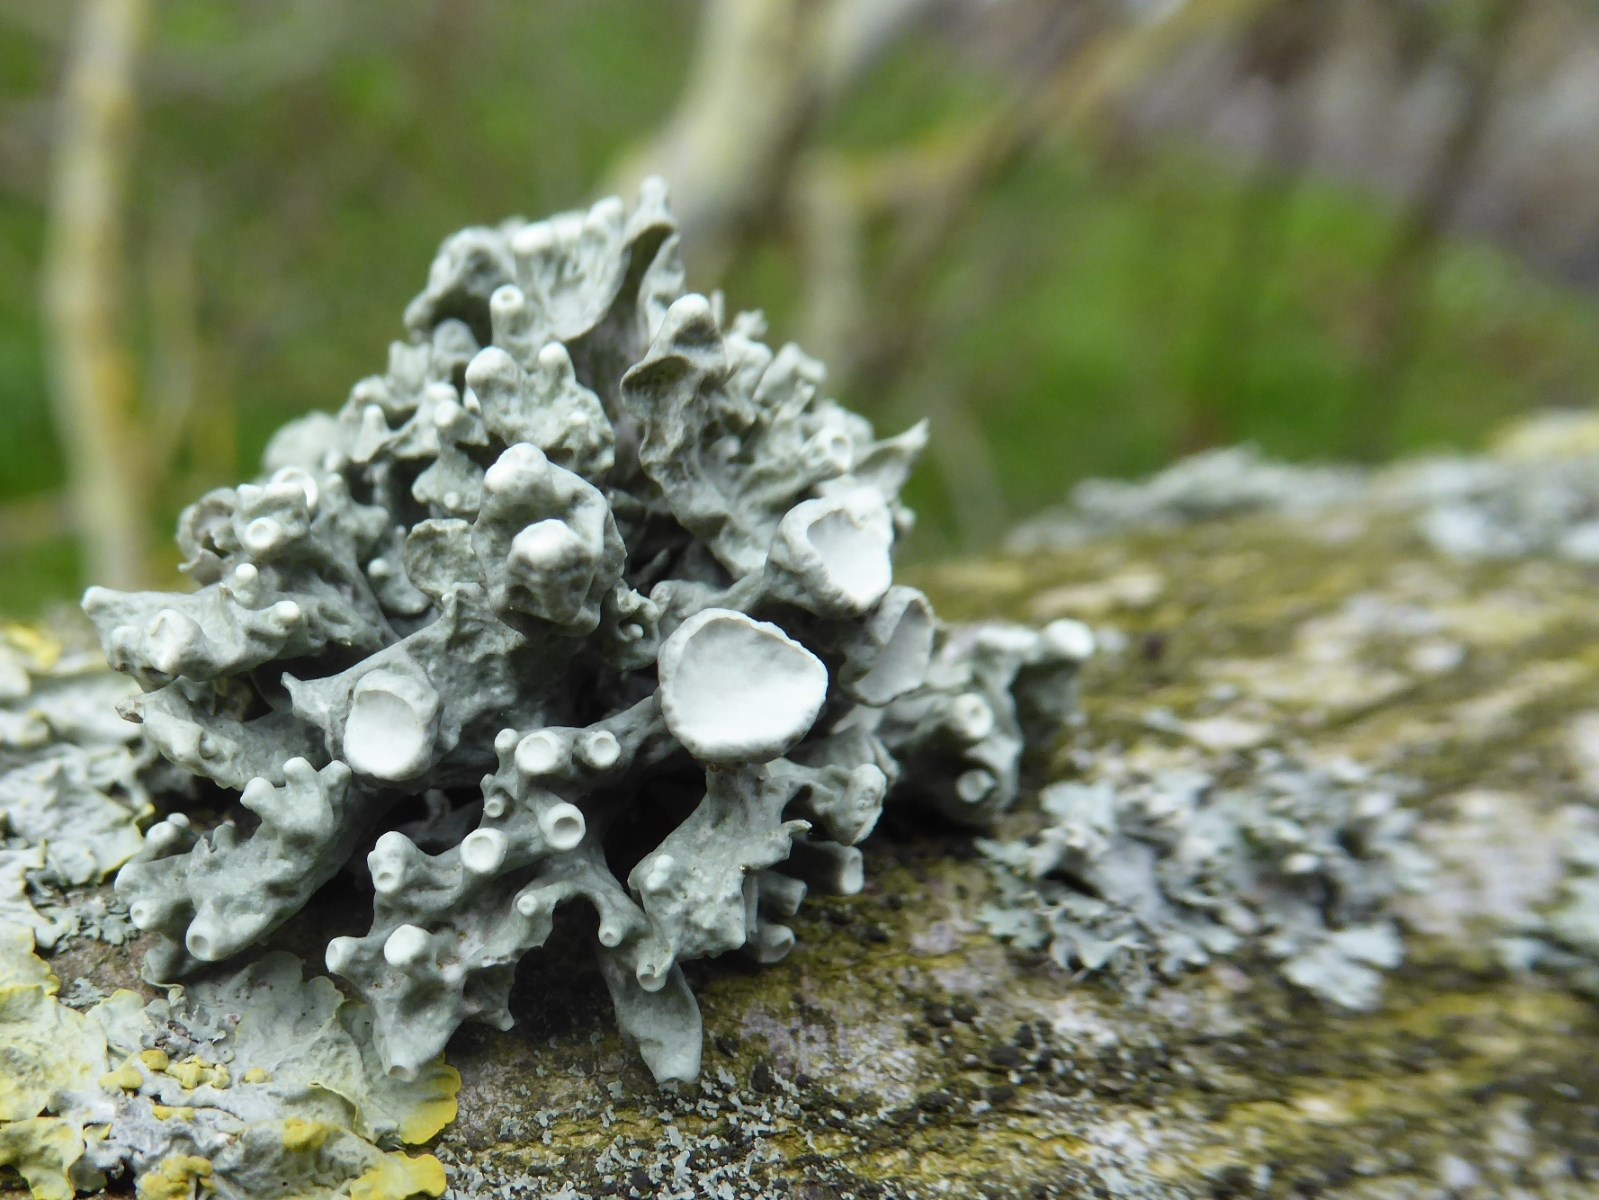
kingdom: Fungi
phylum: Ascomycota
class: Lecanoromycetes
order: Lecanorales
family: Ramalinaceae
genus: Ramalina
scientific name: Ramalina fastigiata
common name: tue-grenlav
